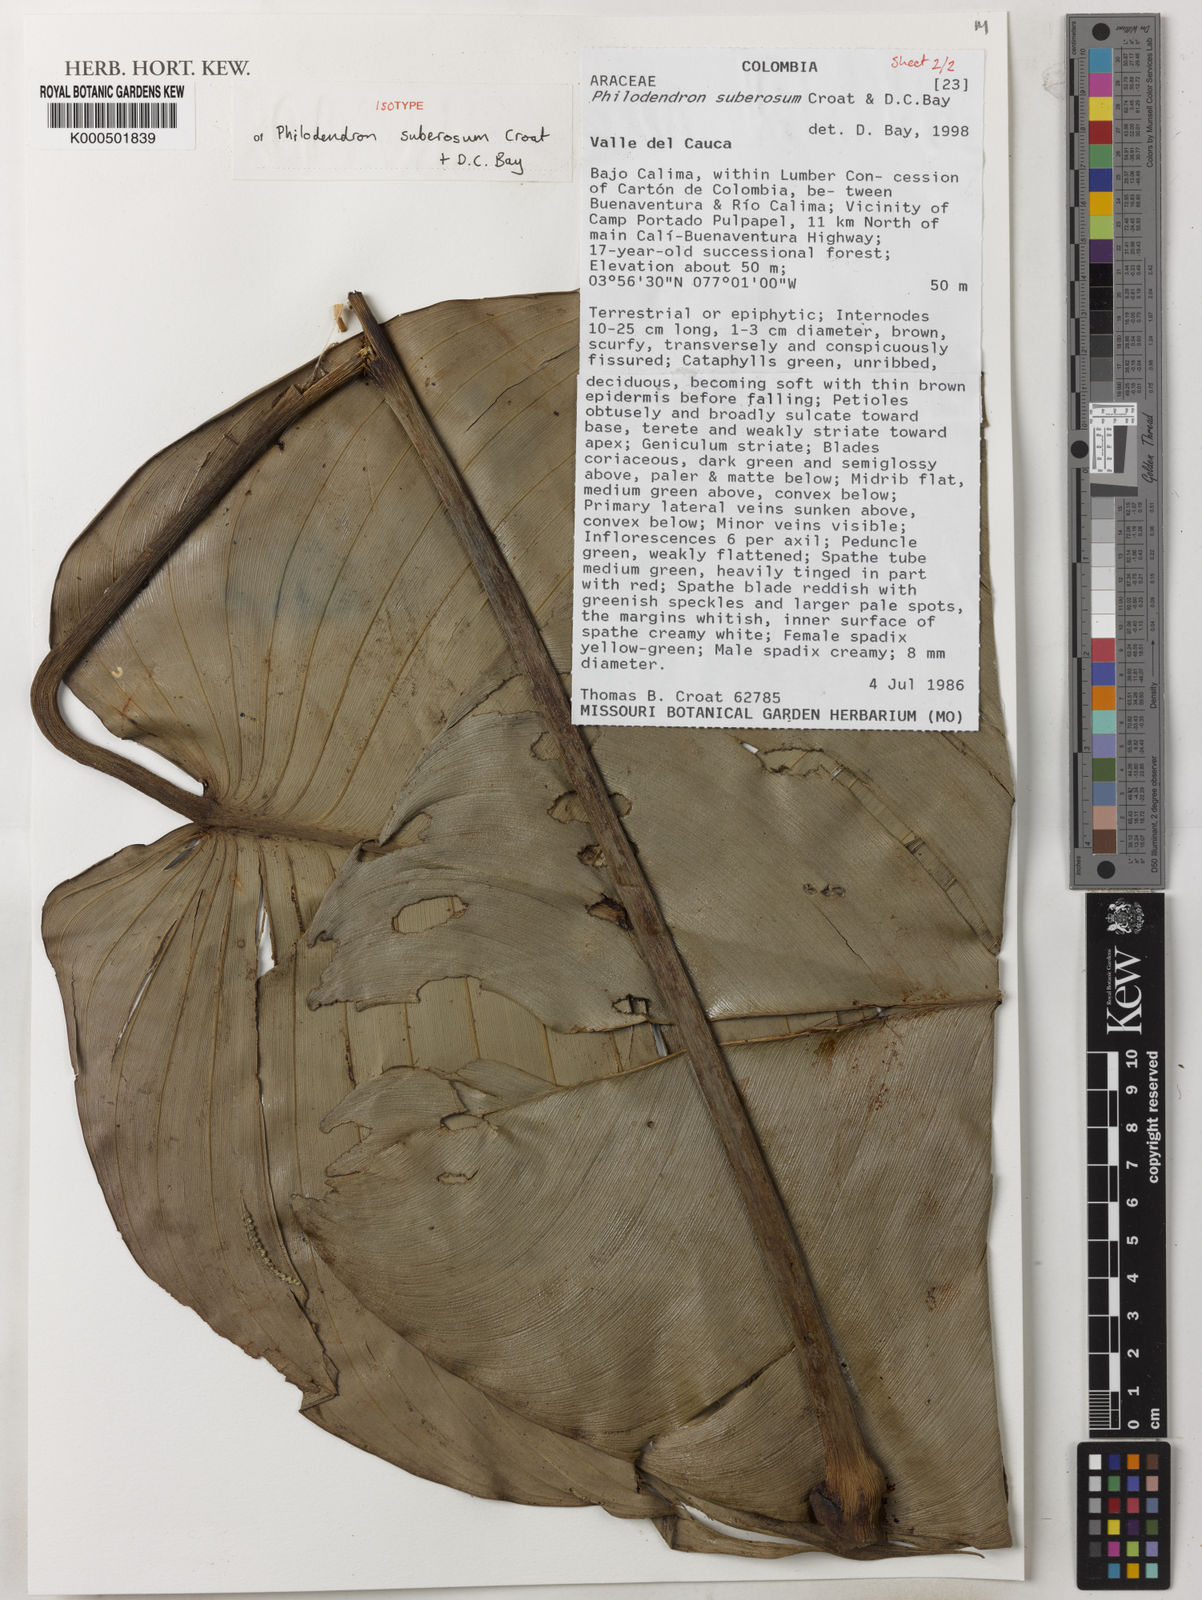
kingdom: Plantae
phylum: Tracheophyta
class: Liliopsida
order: Alismatales
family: Araceae
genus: Philodendron
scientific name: Philodendron suberosum
